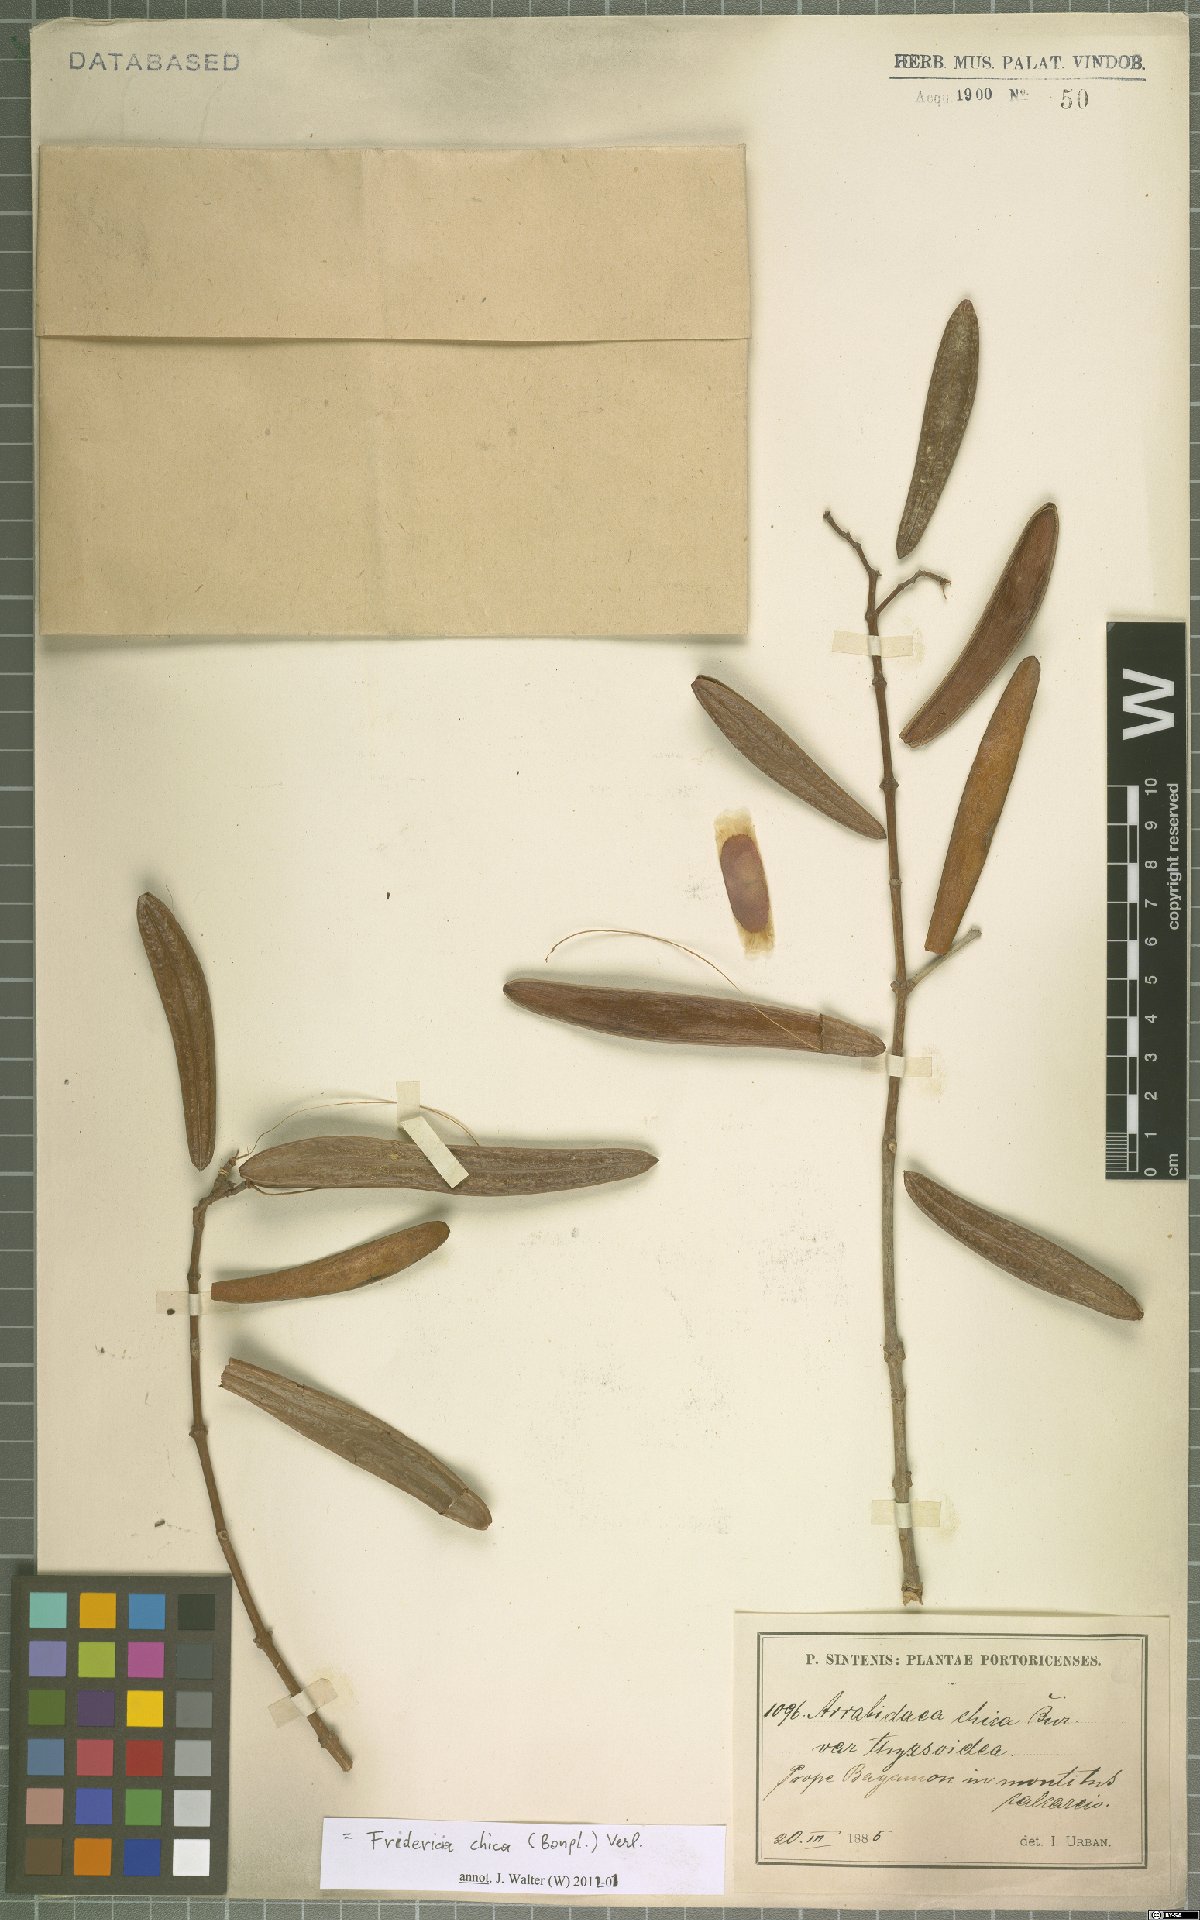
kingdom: Plantae
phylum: Tracheophyta
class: Magnoliopsida
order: Lamiales
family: Bignoniaceae
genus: Fridericia
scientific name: Fridericia chica
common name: Cricketvine
